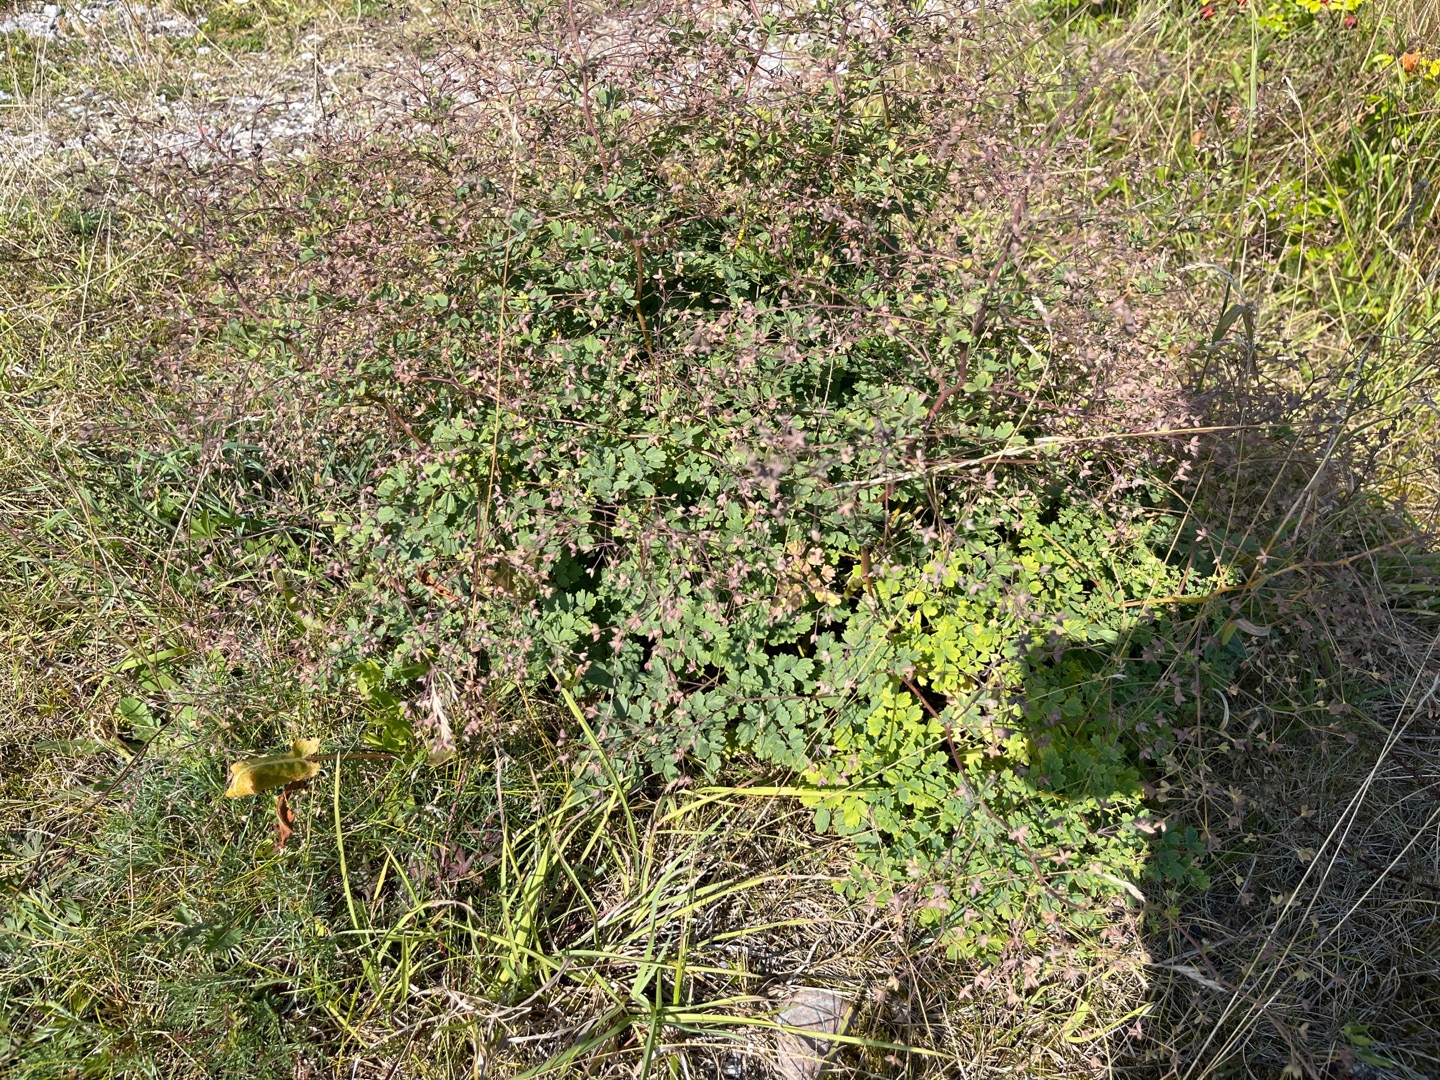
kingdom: Plantae
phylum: Tracheophyta
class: Magnoliopsida
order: Ranunculales
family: Ranunculaceae
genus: Thalictrum
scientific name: Thalictrum minus
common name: Liden frøstjerne
